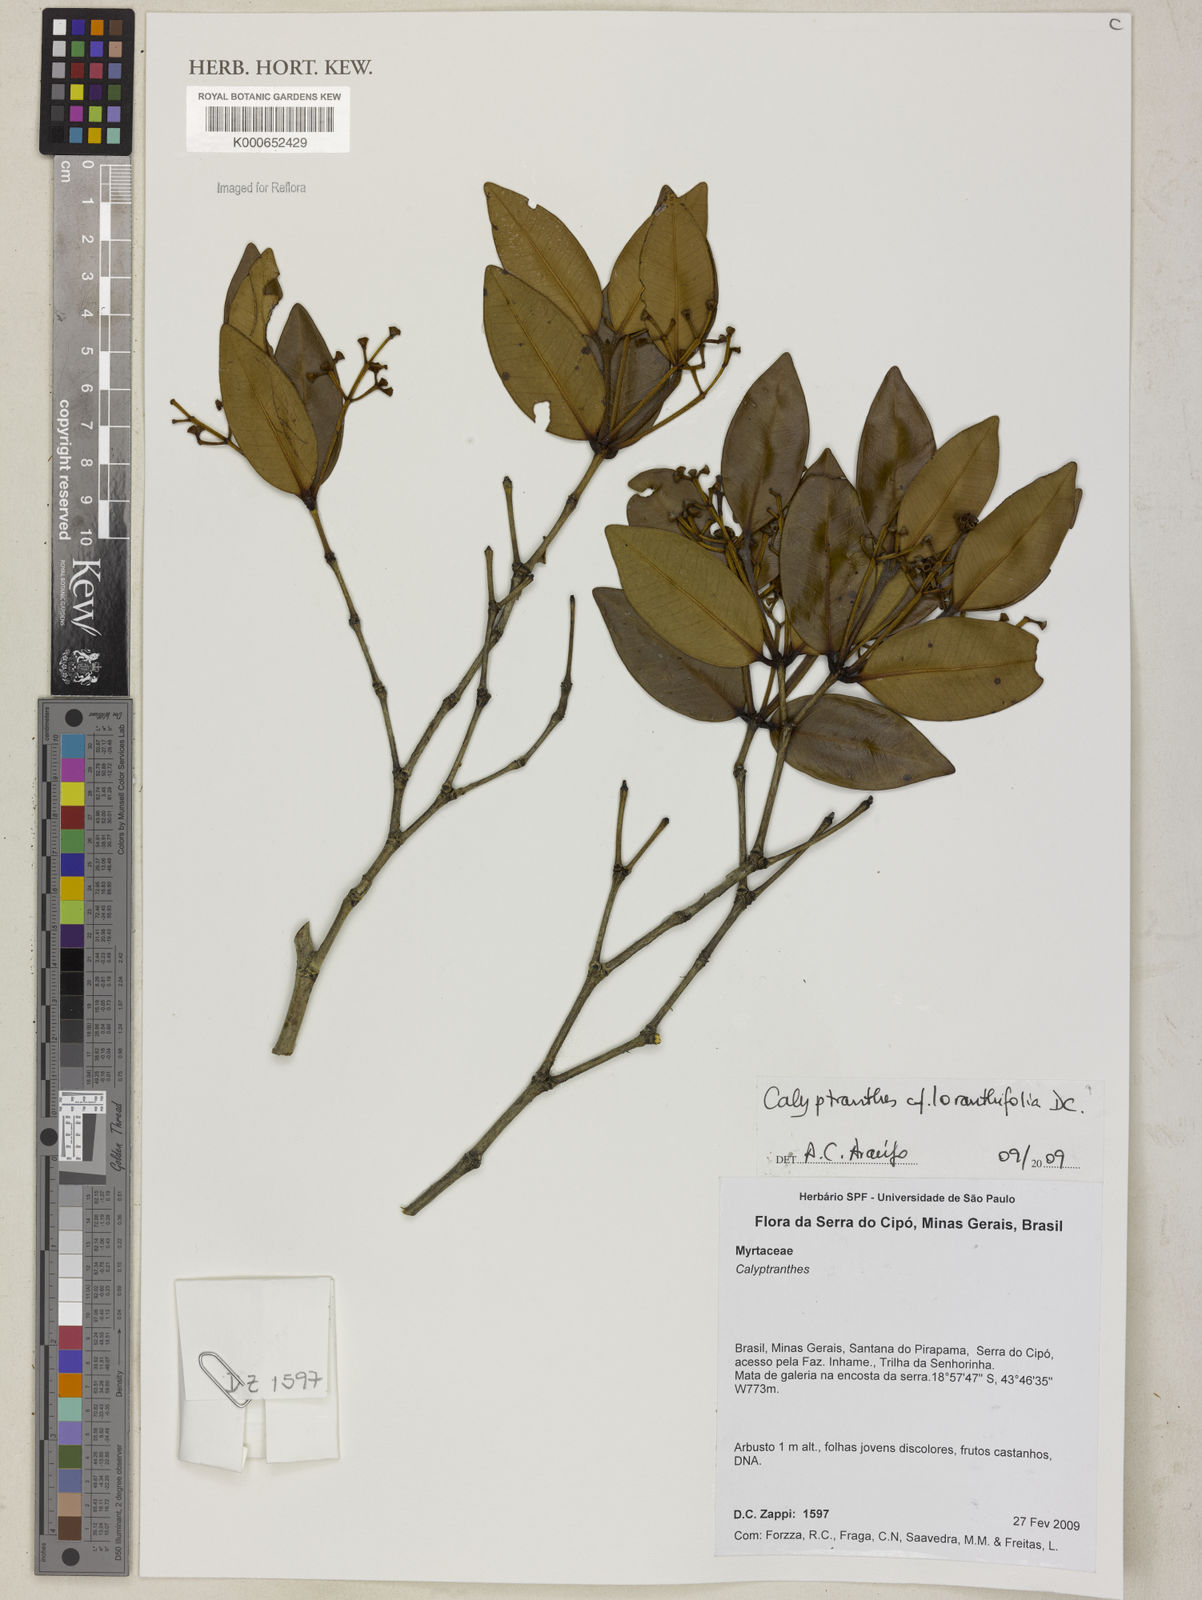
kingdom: Plantae
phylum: Tracheophyta
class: Magnoliopsida
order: Myrtales
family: Myrtaceae
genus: Myrcia
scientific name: Myrcia neobrasiliensis
